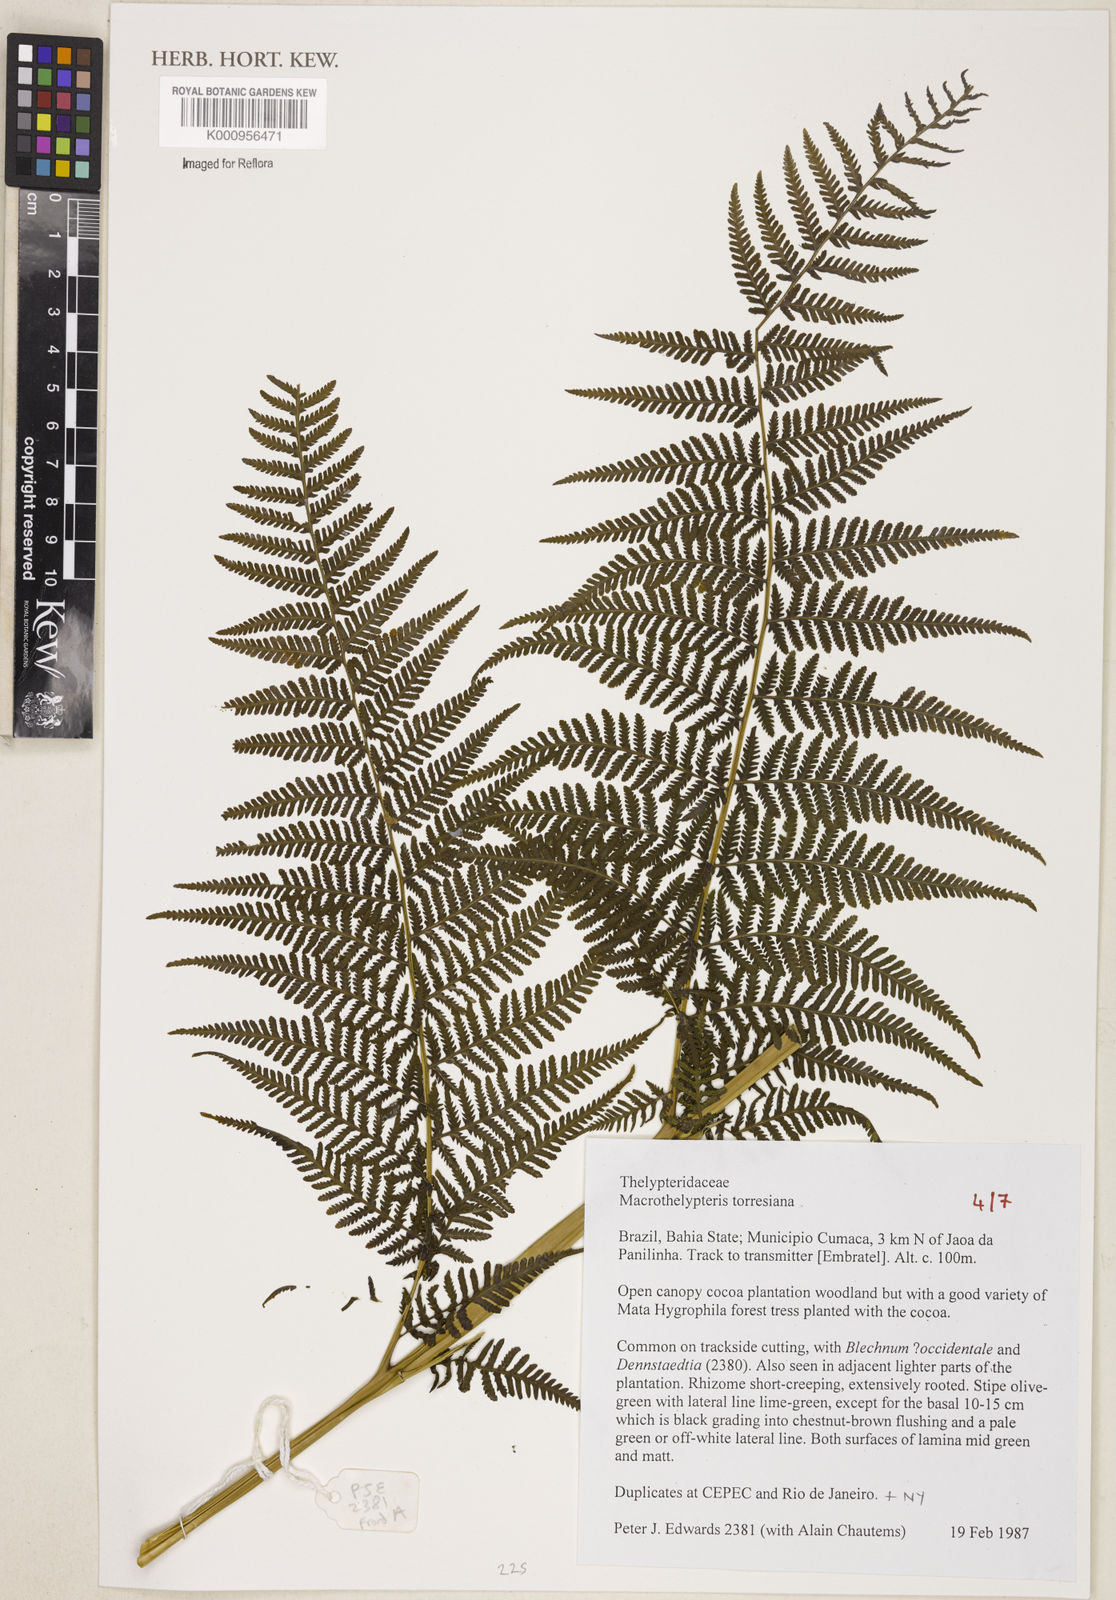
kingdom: Plantae
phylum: Tracheophyta
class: Polypodiopsida
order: Polypodiales
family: Thelypteridaceae
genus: Macrothelypteris
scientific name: Macrothelypteris torresiana
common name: Swordfern
